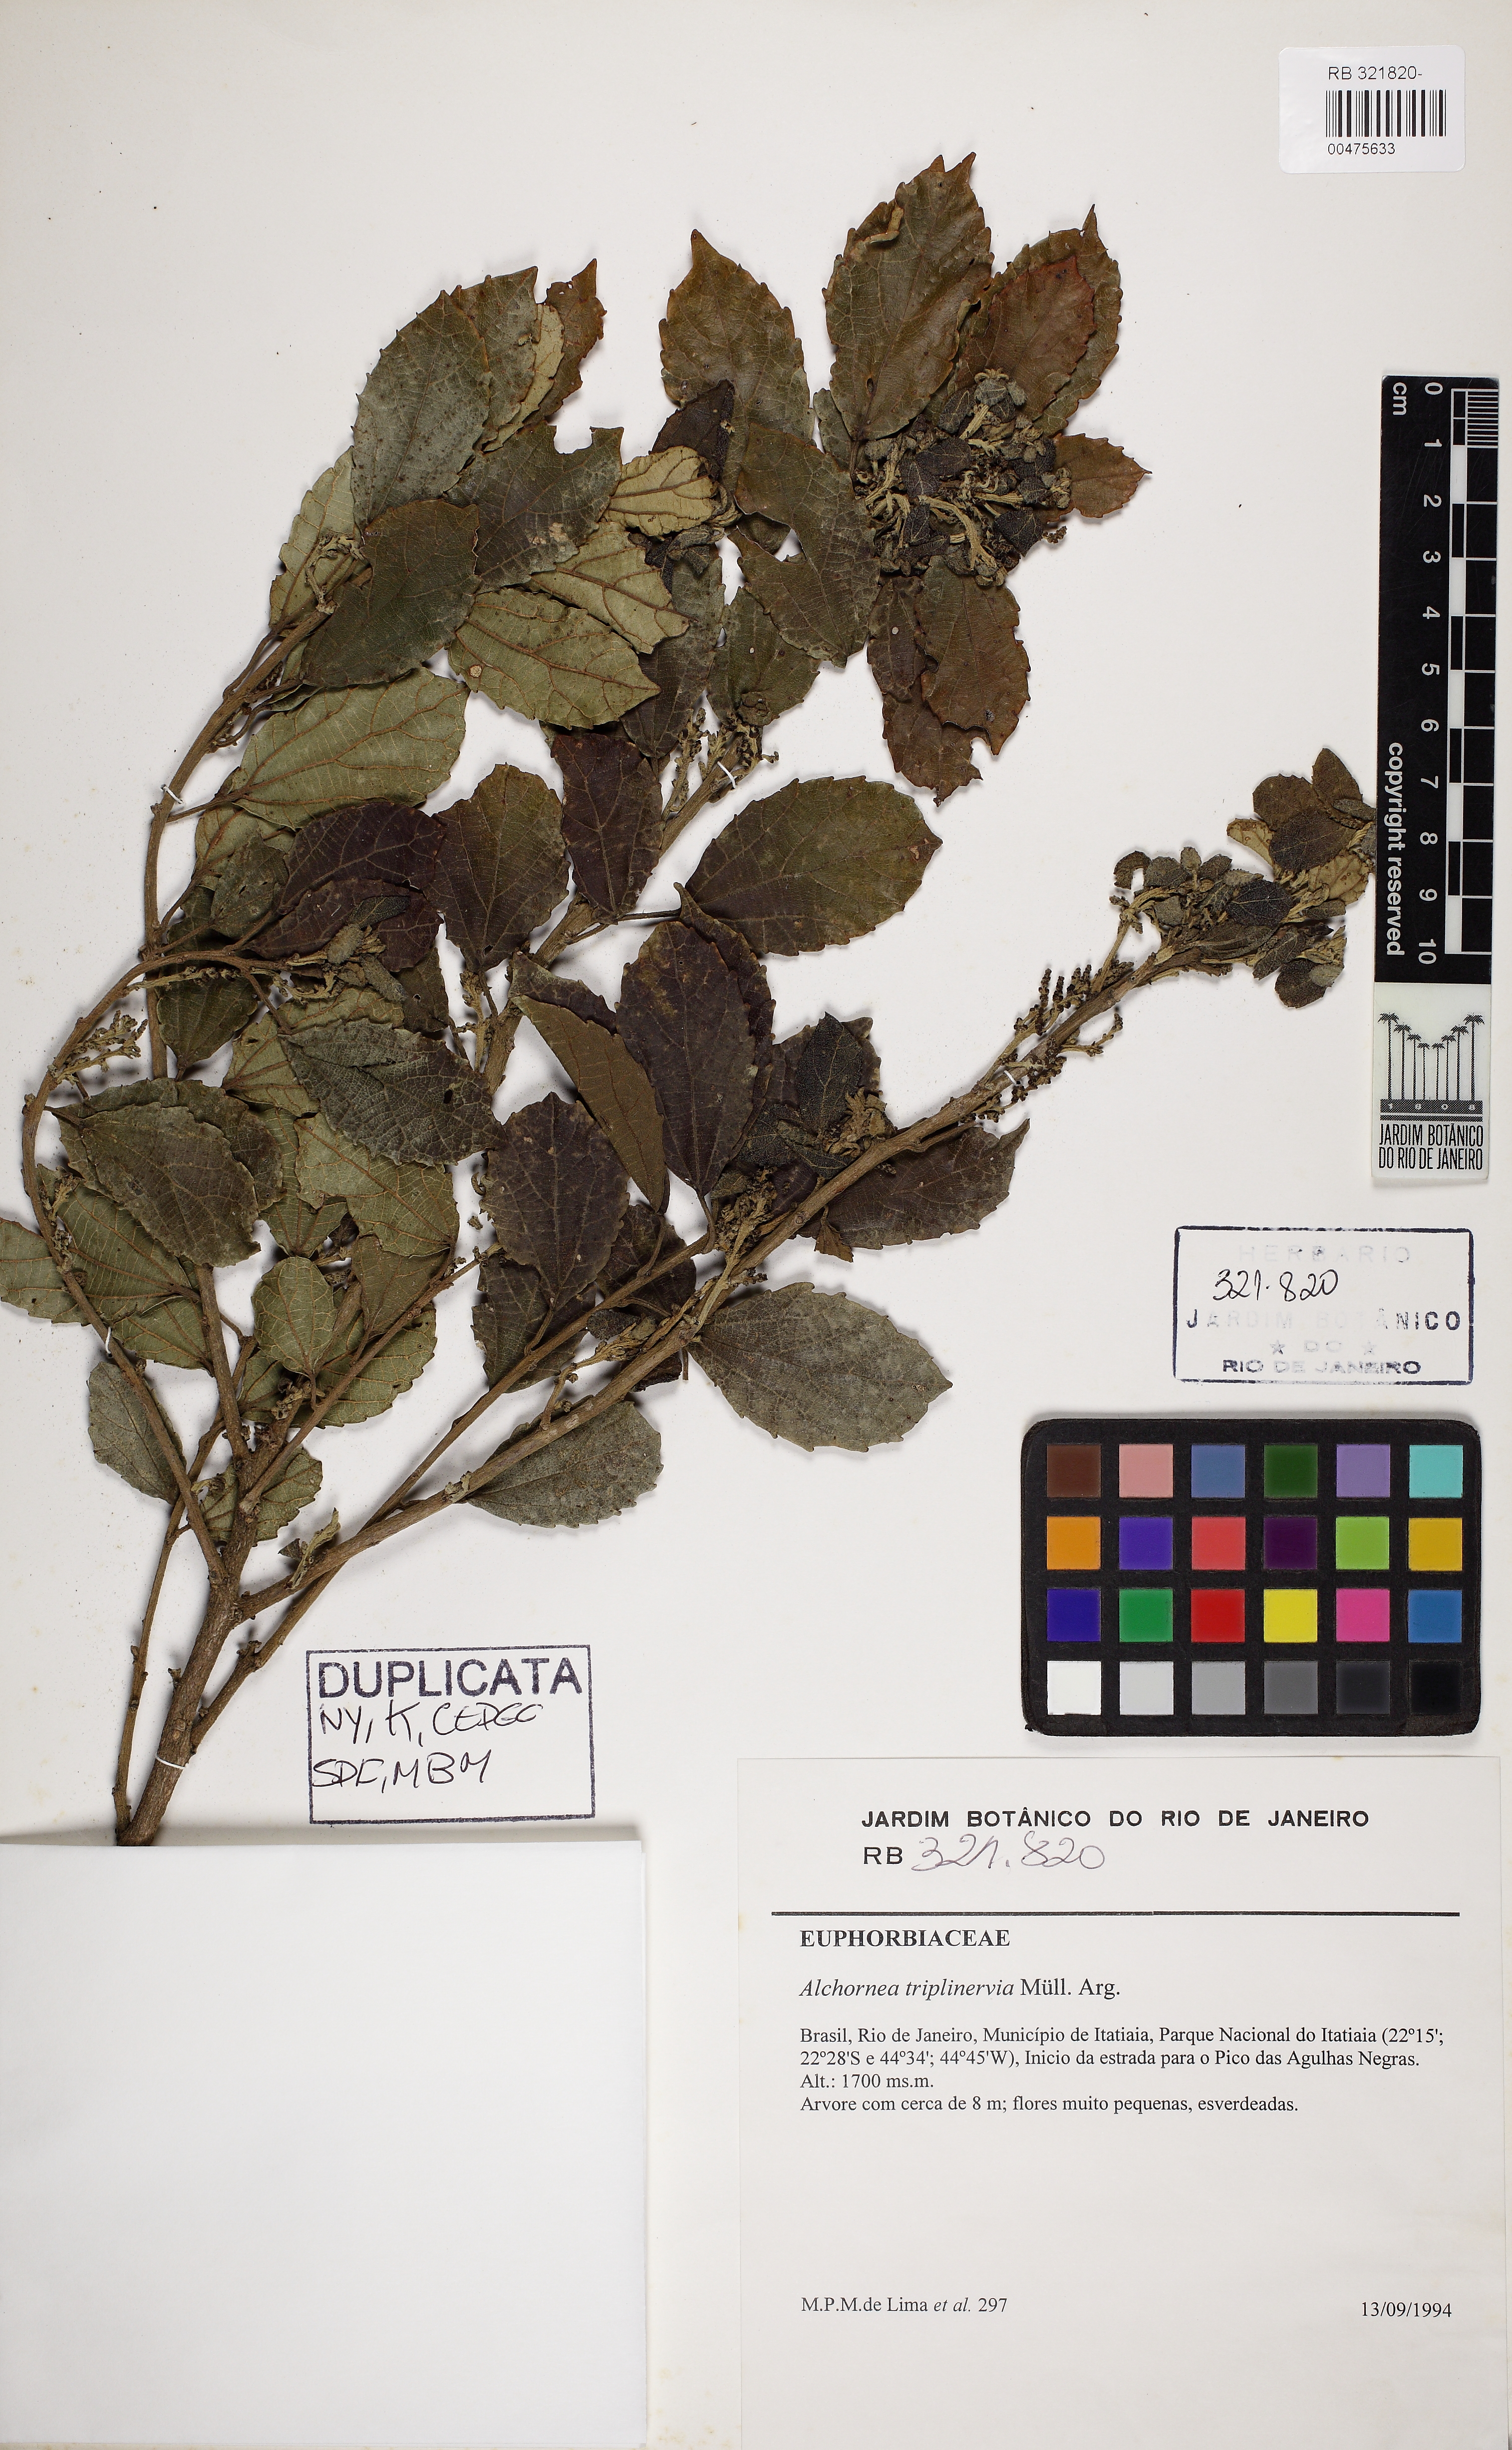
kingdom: Plantae
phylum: Tracheophyta
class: Magnoliopsida
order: Malpighiales
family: Euphorbiaceae
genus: Alchornea
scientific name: Alchornea triplinervia
